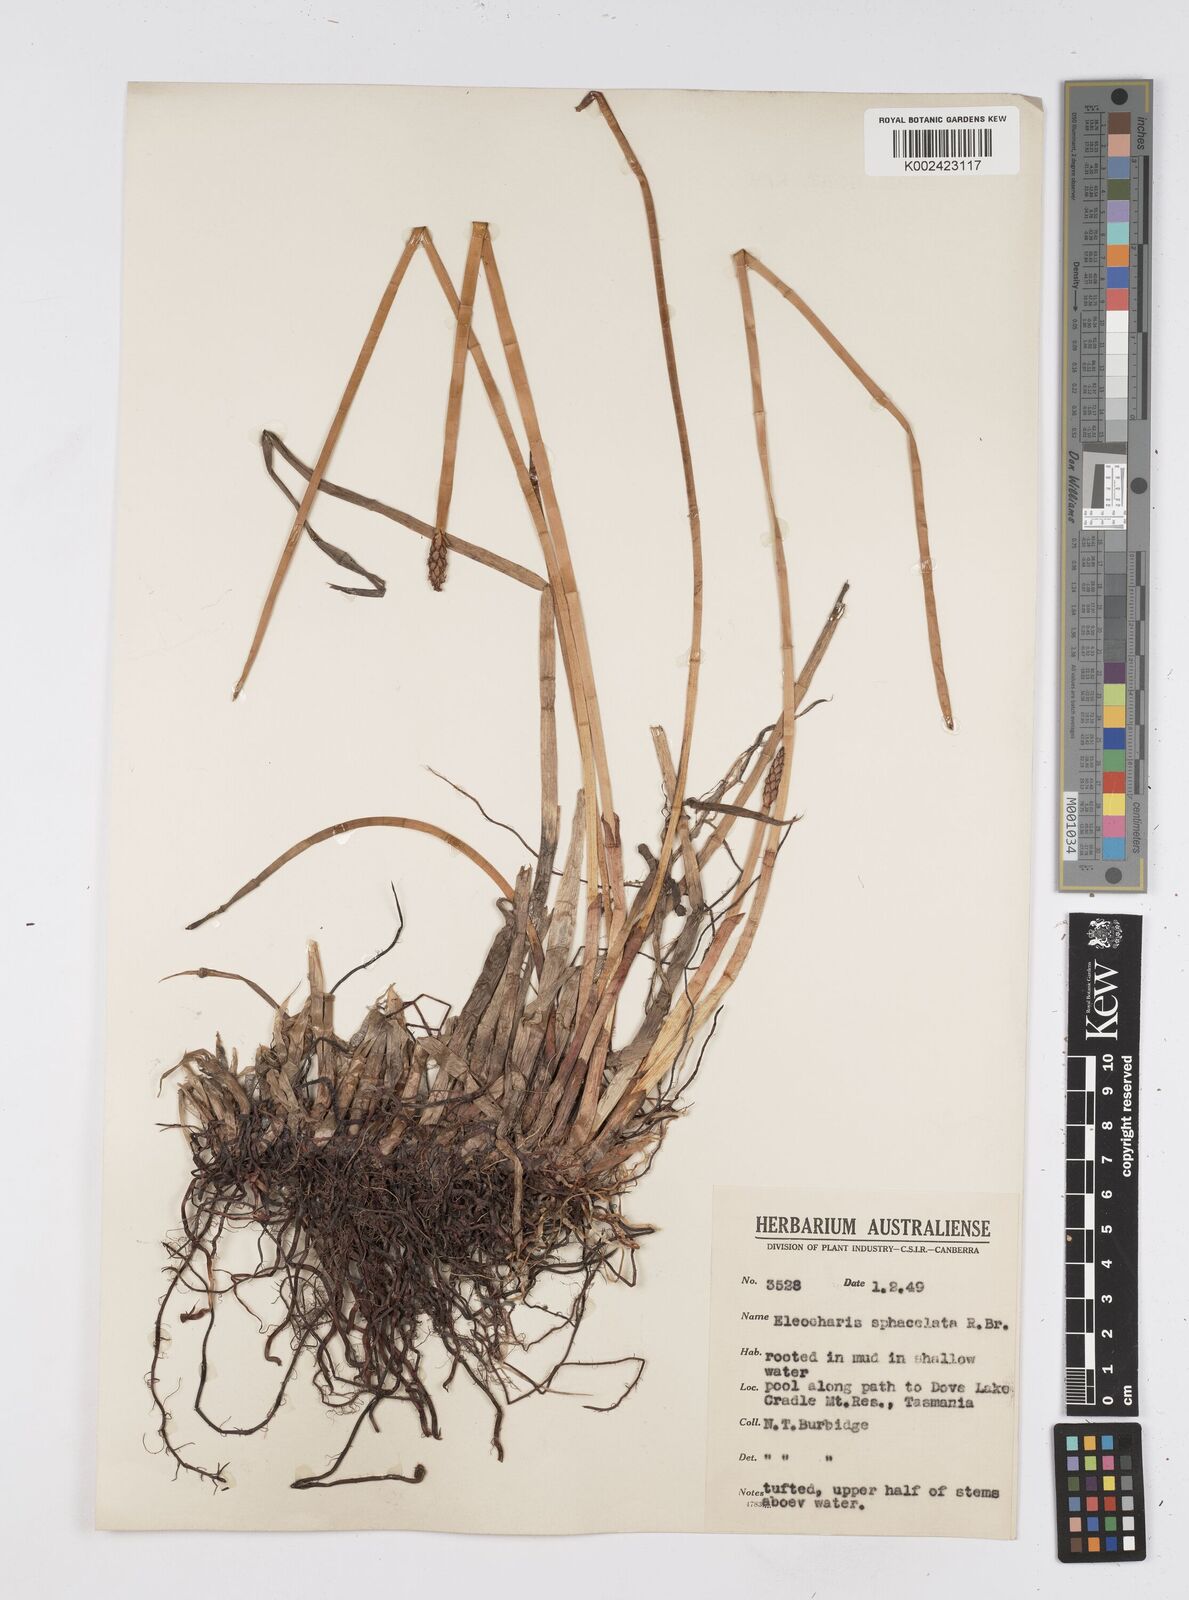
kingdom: Plantae
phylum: Tracheophyta
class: Liliopsida
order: Poales
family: Cyperaceae
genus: Eleocharis
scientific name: Eleocharis sphacelata
